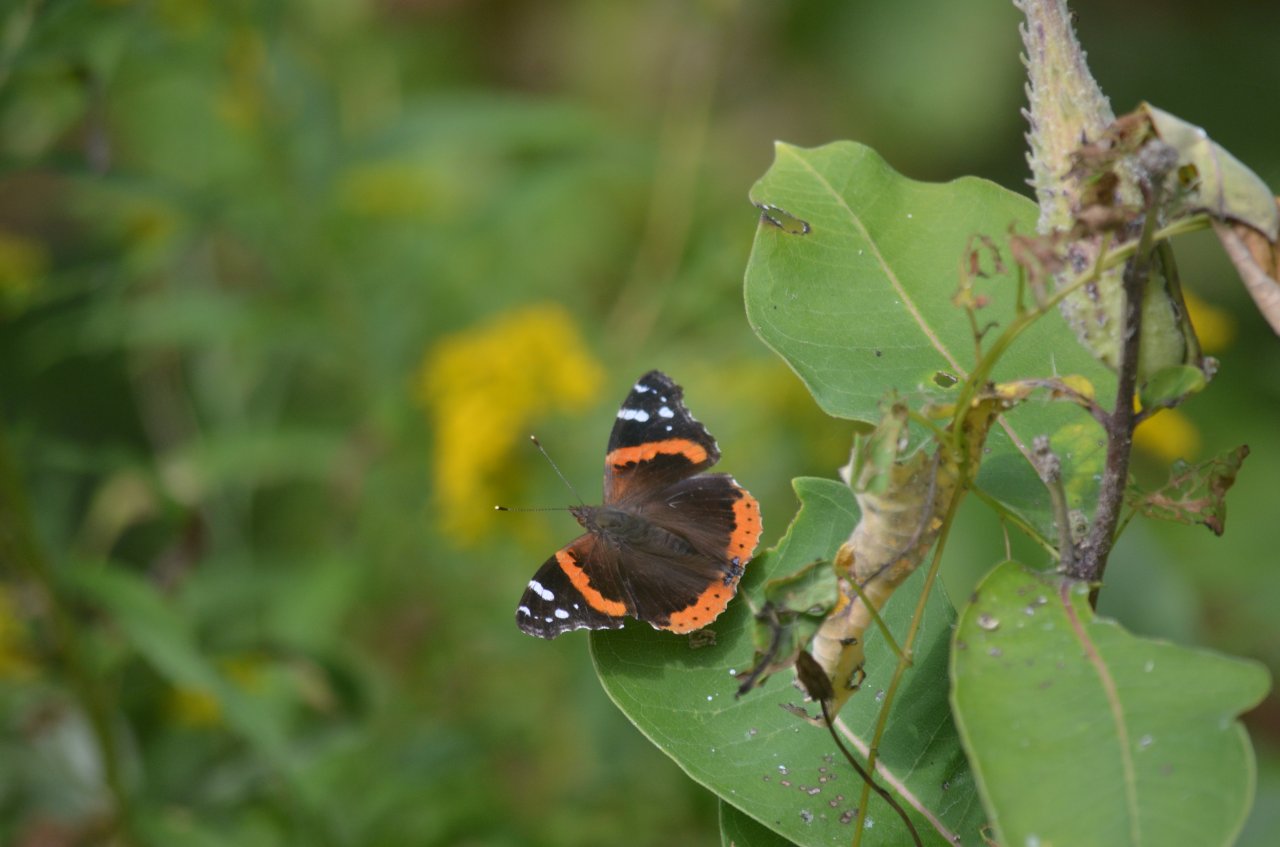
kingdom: Animalia
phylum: Arthropoda
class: Insecta
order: Lepidoptera
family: Nymphalidae
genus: Vanessa
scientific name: Vanessa atalanta
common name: Red Admiral
